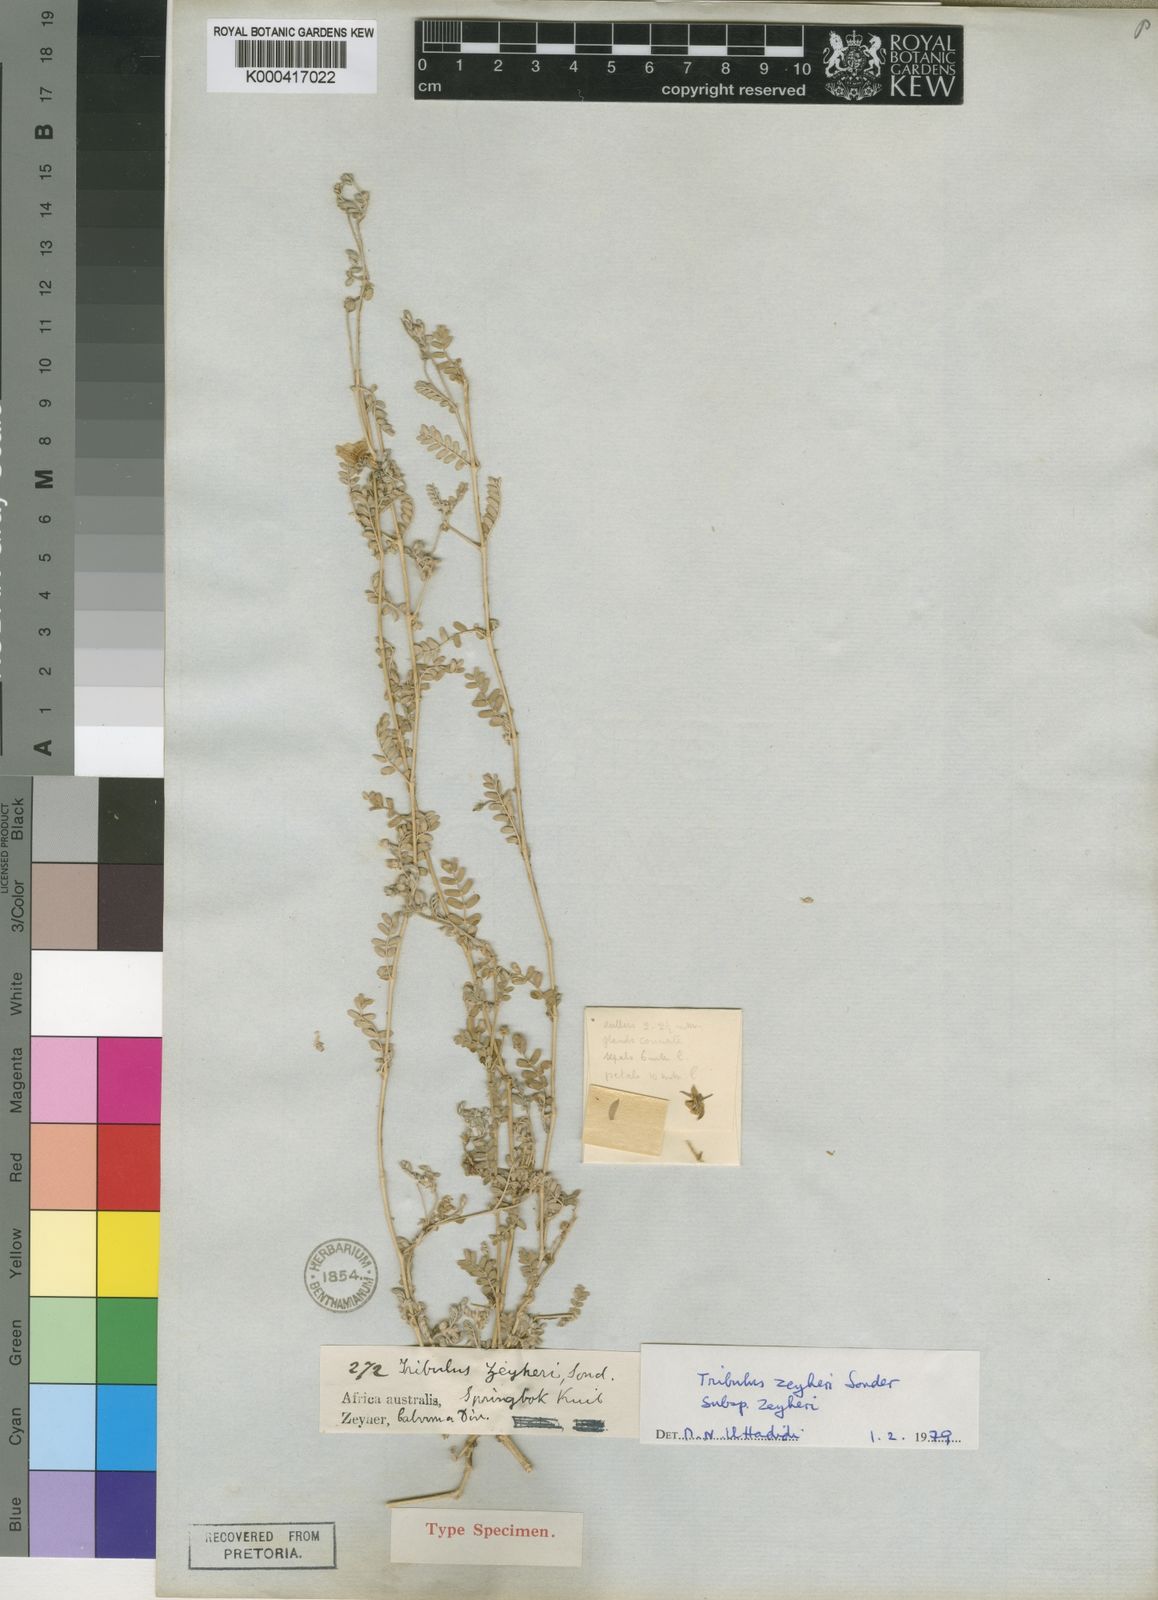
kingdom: Plantae
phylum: Tracheophyta
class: Magnoliopsida
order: Zygophyllales
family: Zygophyllaceae
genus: Tribulus
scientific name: Tribulus zeyheri
